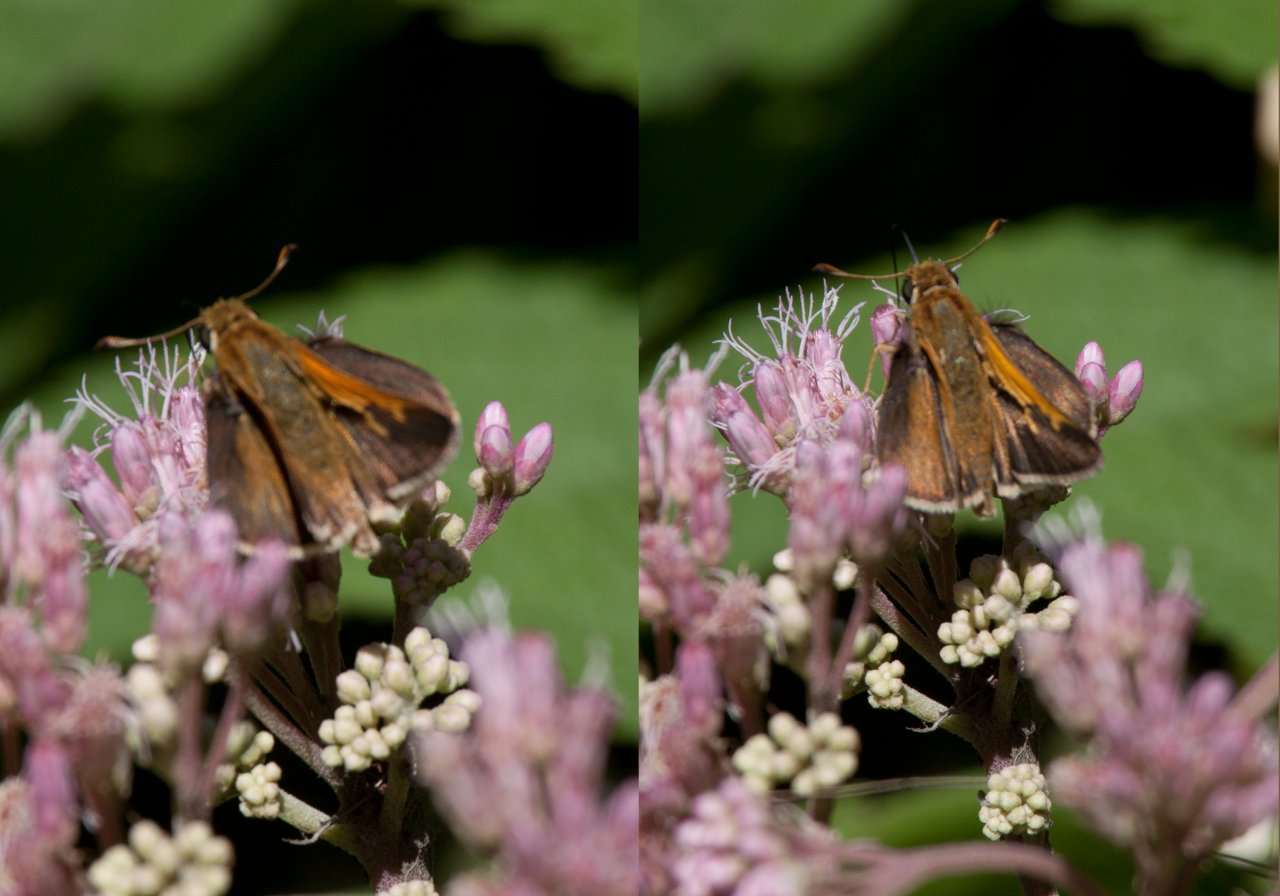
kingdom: Animalia
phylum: Arthropoda
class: Insecta
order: Lepidoptera
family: Hesperiidae
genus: Polites
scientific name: Polites
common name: Crossline Skipper
